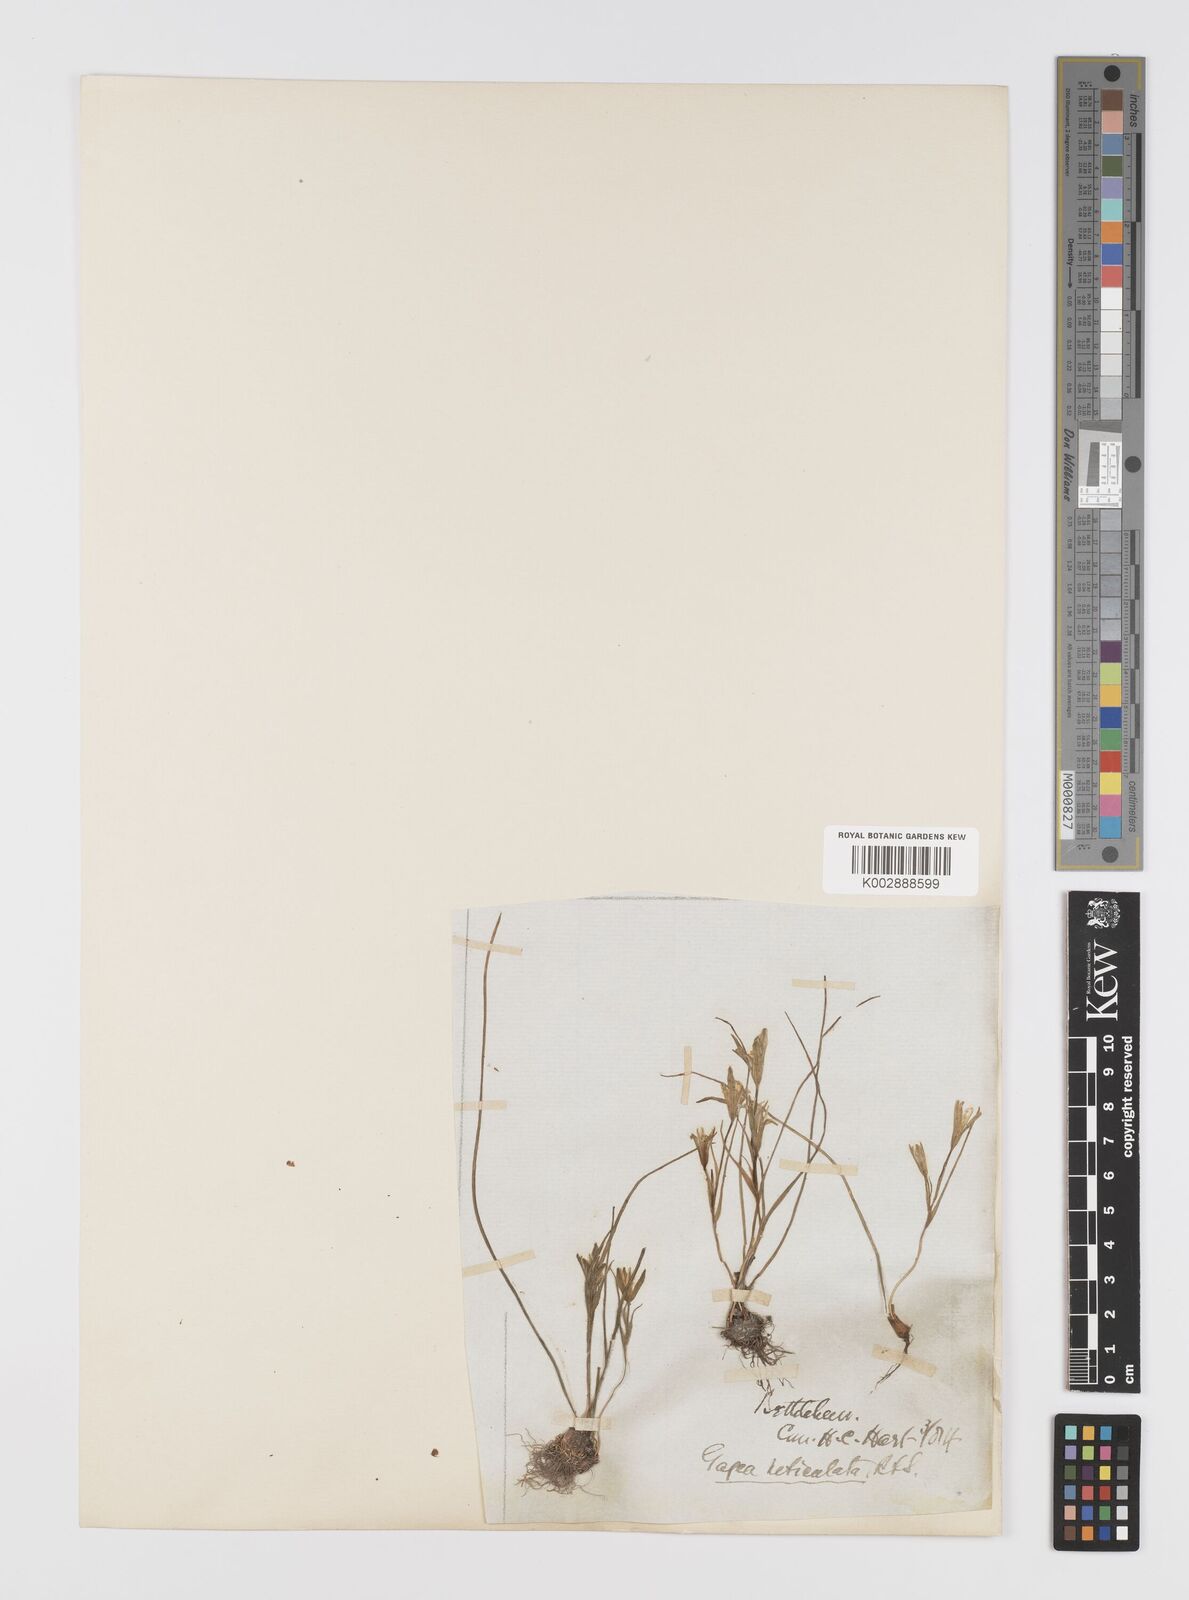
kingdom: Plantae
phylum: Tracheophyta
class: Liliopsida
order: Liliales
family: Liliaceae
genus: Gagea
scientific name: Gagea chlorantha
